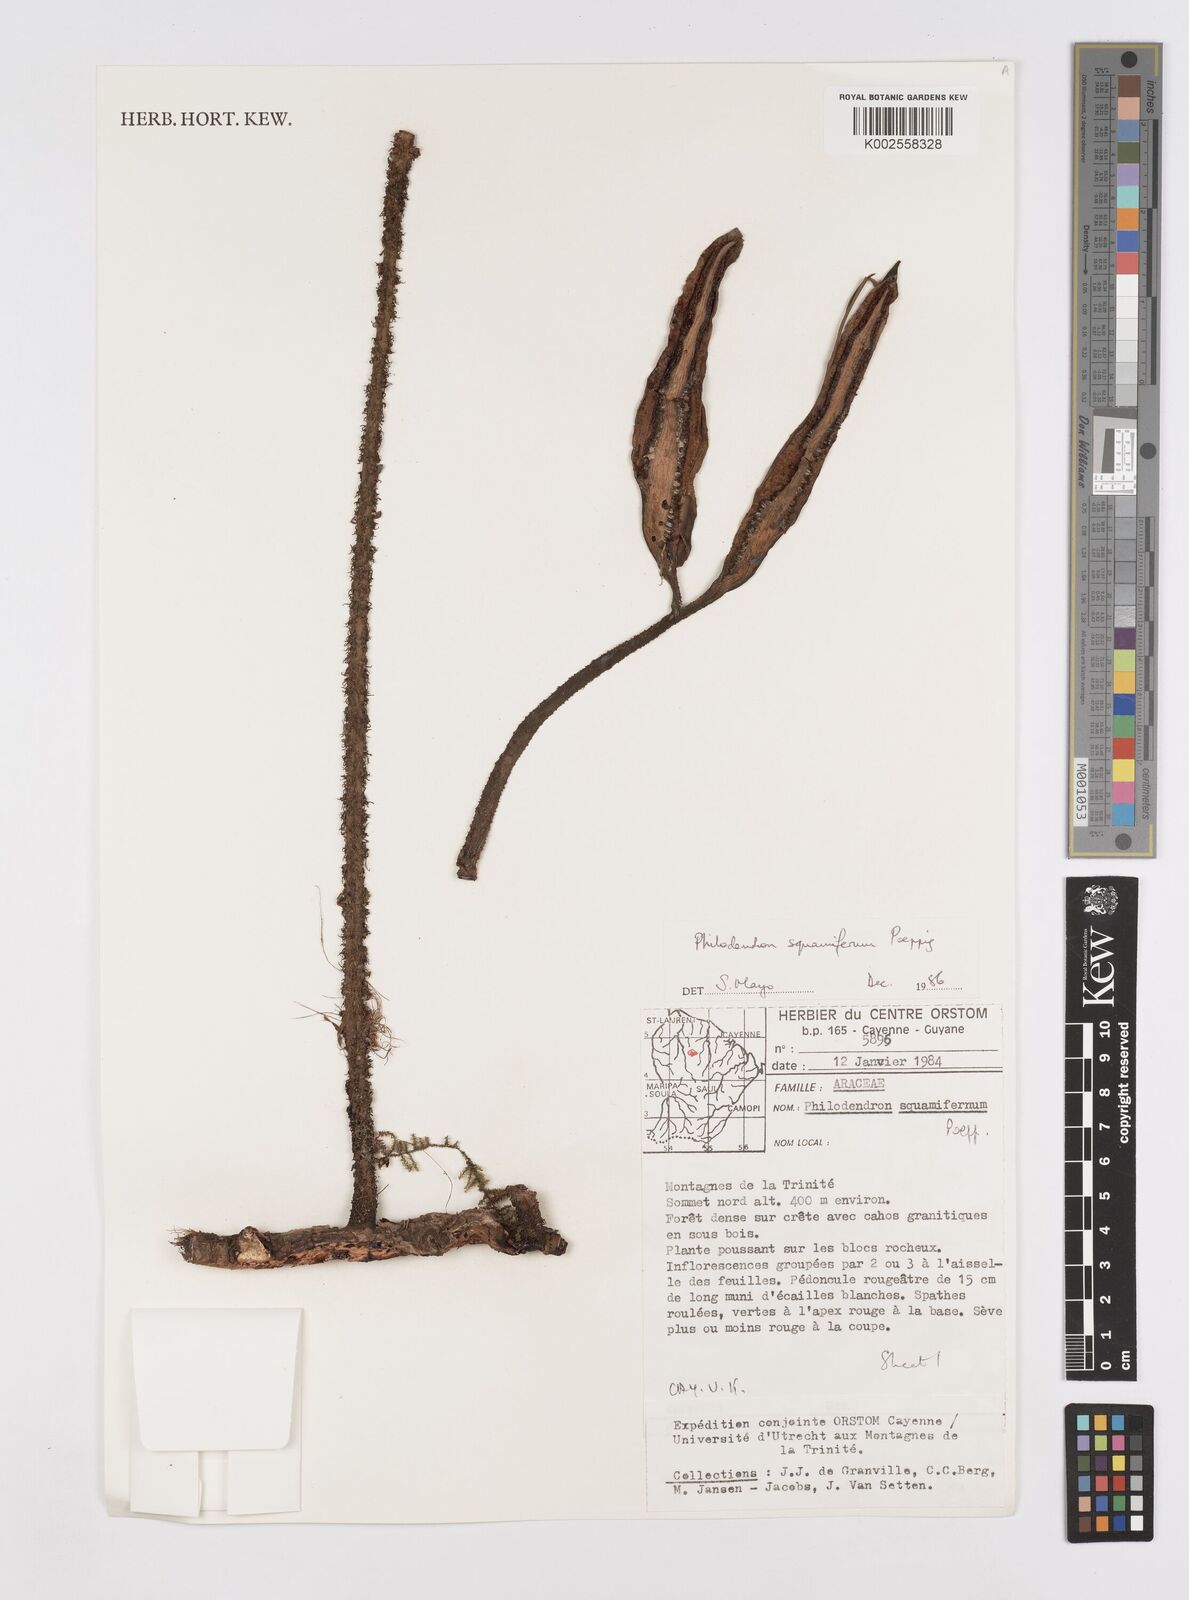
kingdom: Plantae
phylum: Tracheophyta
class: Liliopsida
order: Alismatales
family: Araceae
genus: Philodendron
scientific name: Philodendron squamiferum
